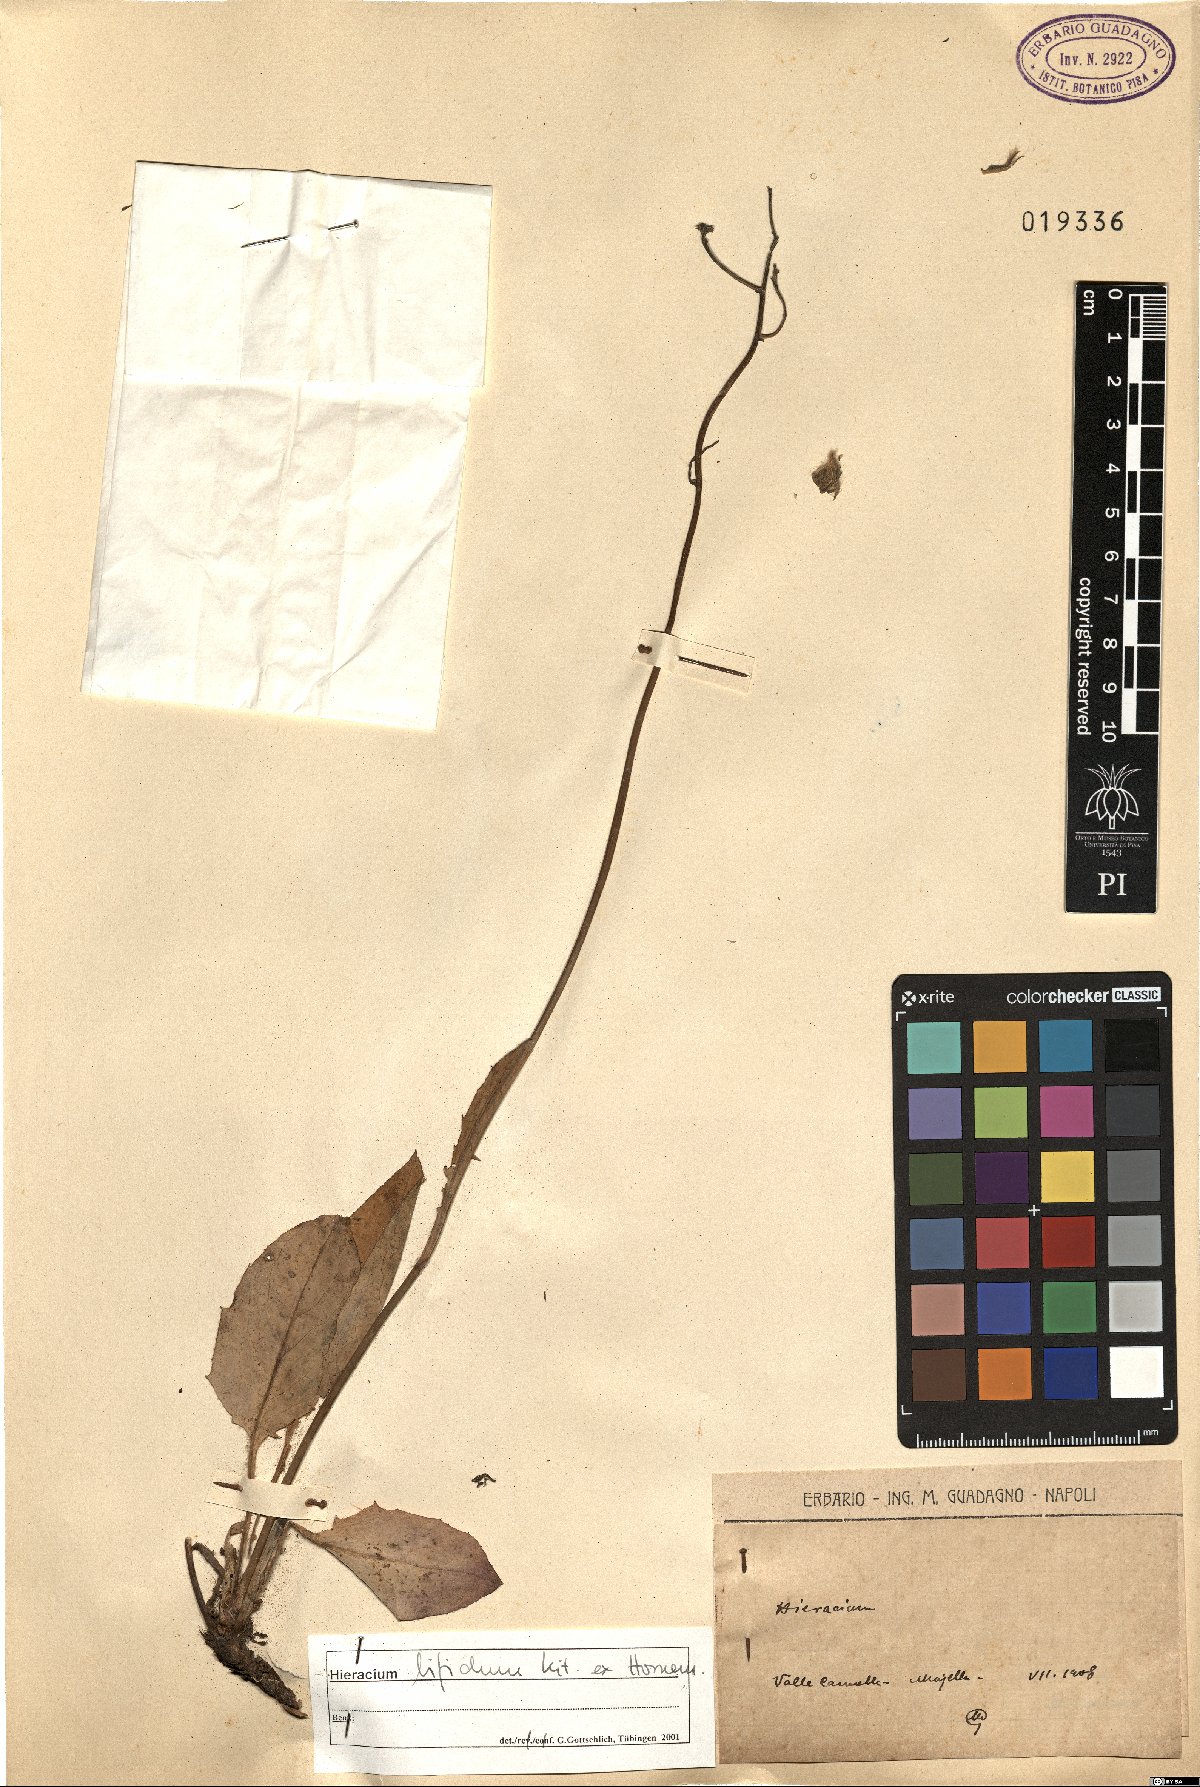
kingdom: Plantae
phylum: Tracheophyta
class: Magnoliopsida
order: Asterales
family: Asteraceae
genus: Hieracium
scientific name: Hieracium bifidum
